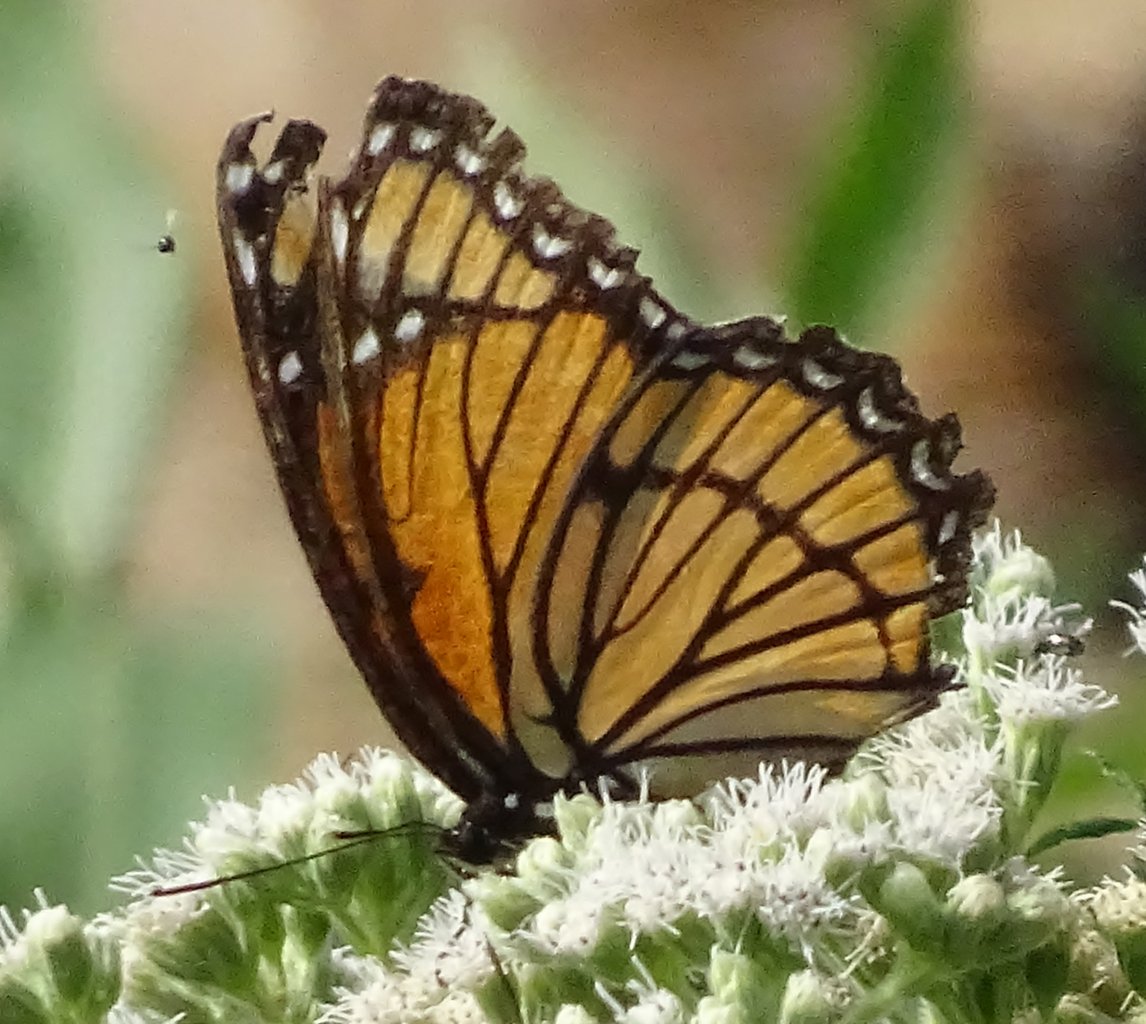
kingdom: Animalia
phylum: Arthropoda
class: Insecta
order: Lepidoptera
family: Nymphalidae
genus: Limenitis
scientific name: Limenitis archippus
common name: Viceroy
